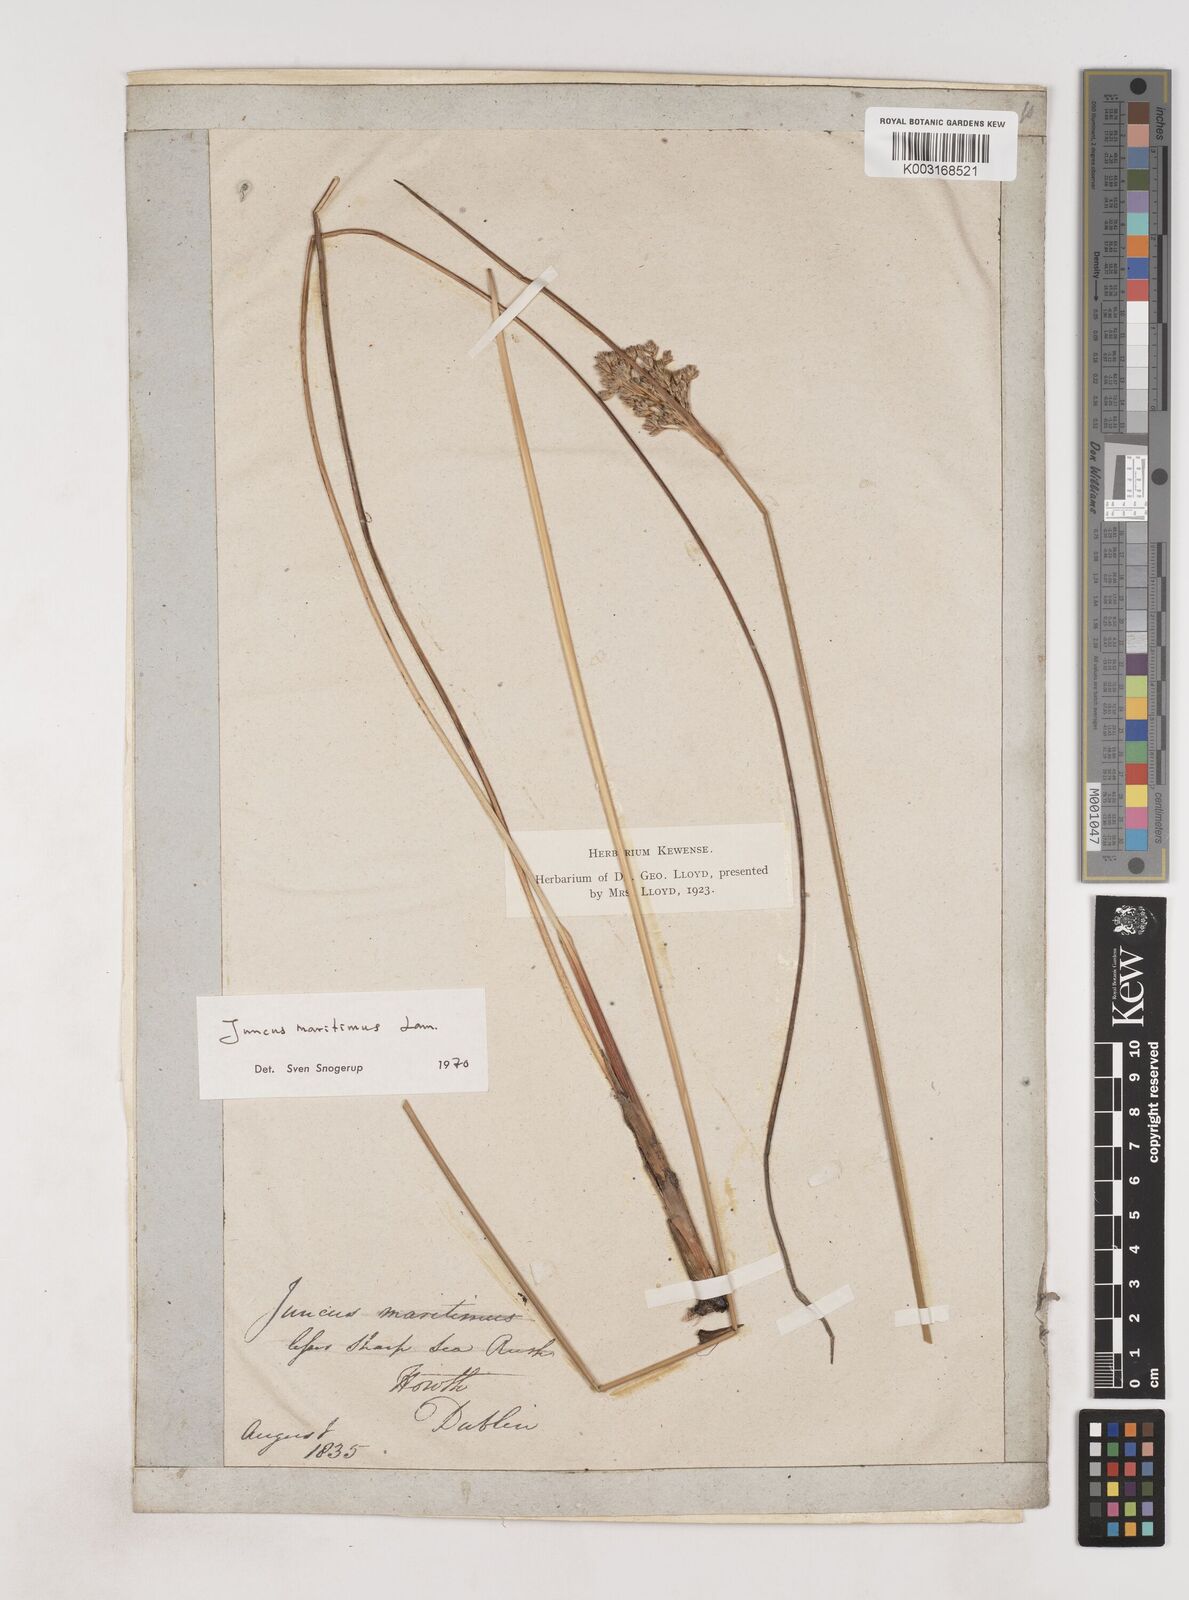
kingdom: Plantae
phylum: Tracheophyta
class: Liliopsida
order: Poales
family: Juncaceae
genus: Juncus
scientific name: Juncus maritimus
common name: Sea rush
